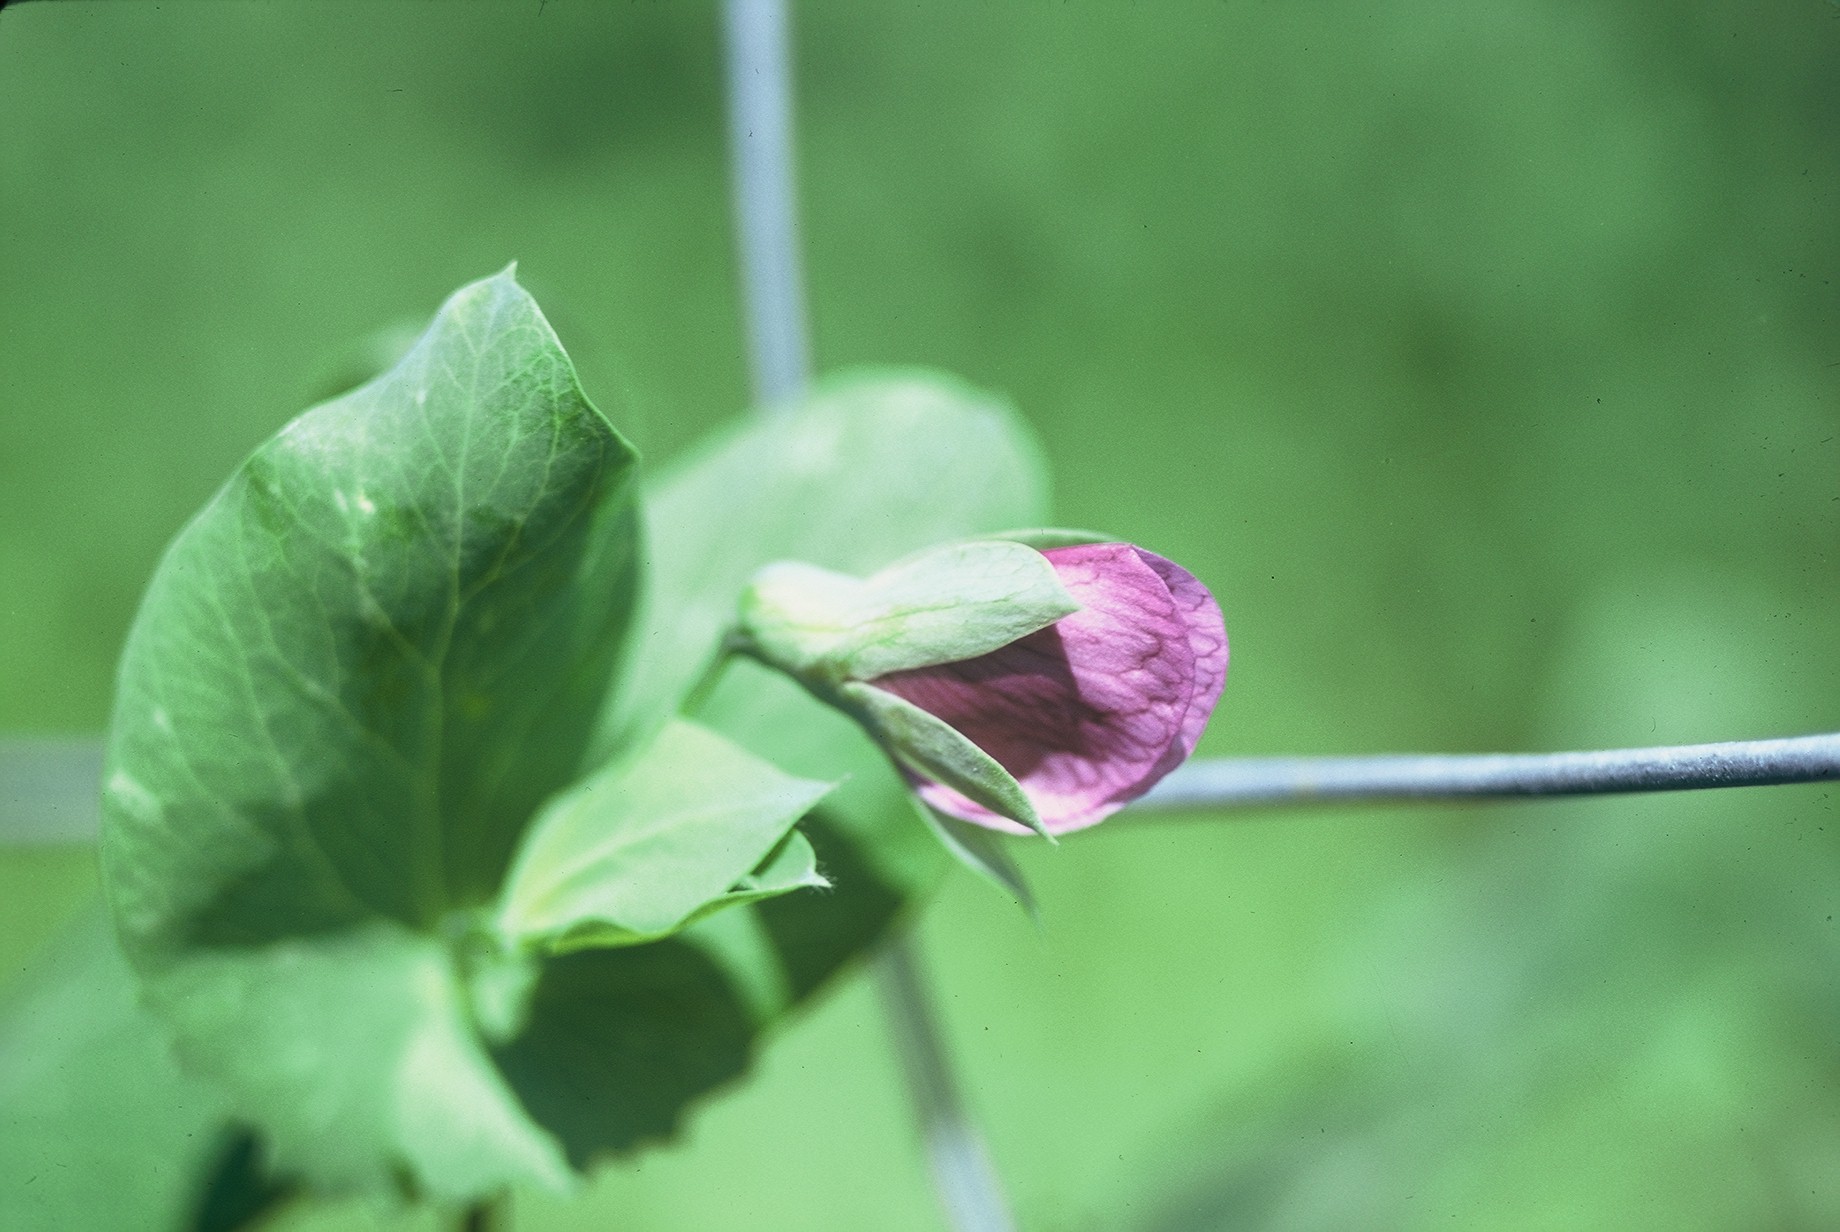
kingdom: Plantae
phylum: Tracheophyta
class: Magnoliopsida
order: Fabales
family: Fabaceae
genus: Lathyrus
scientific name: Lathyrus oleraceus
